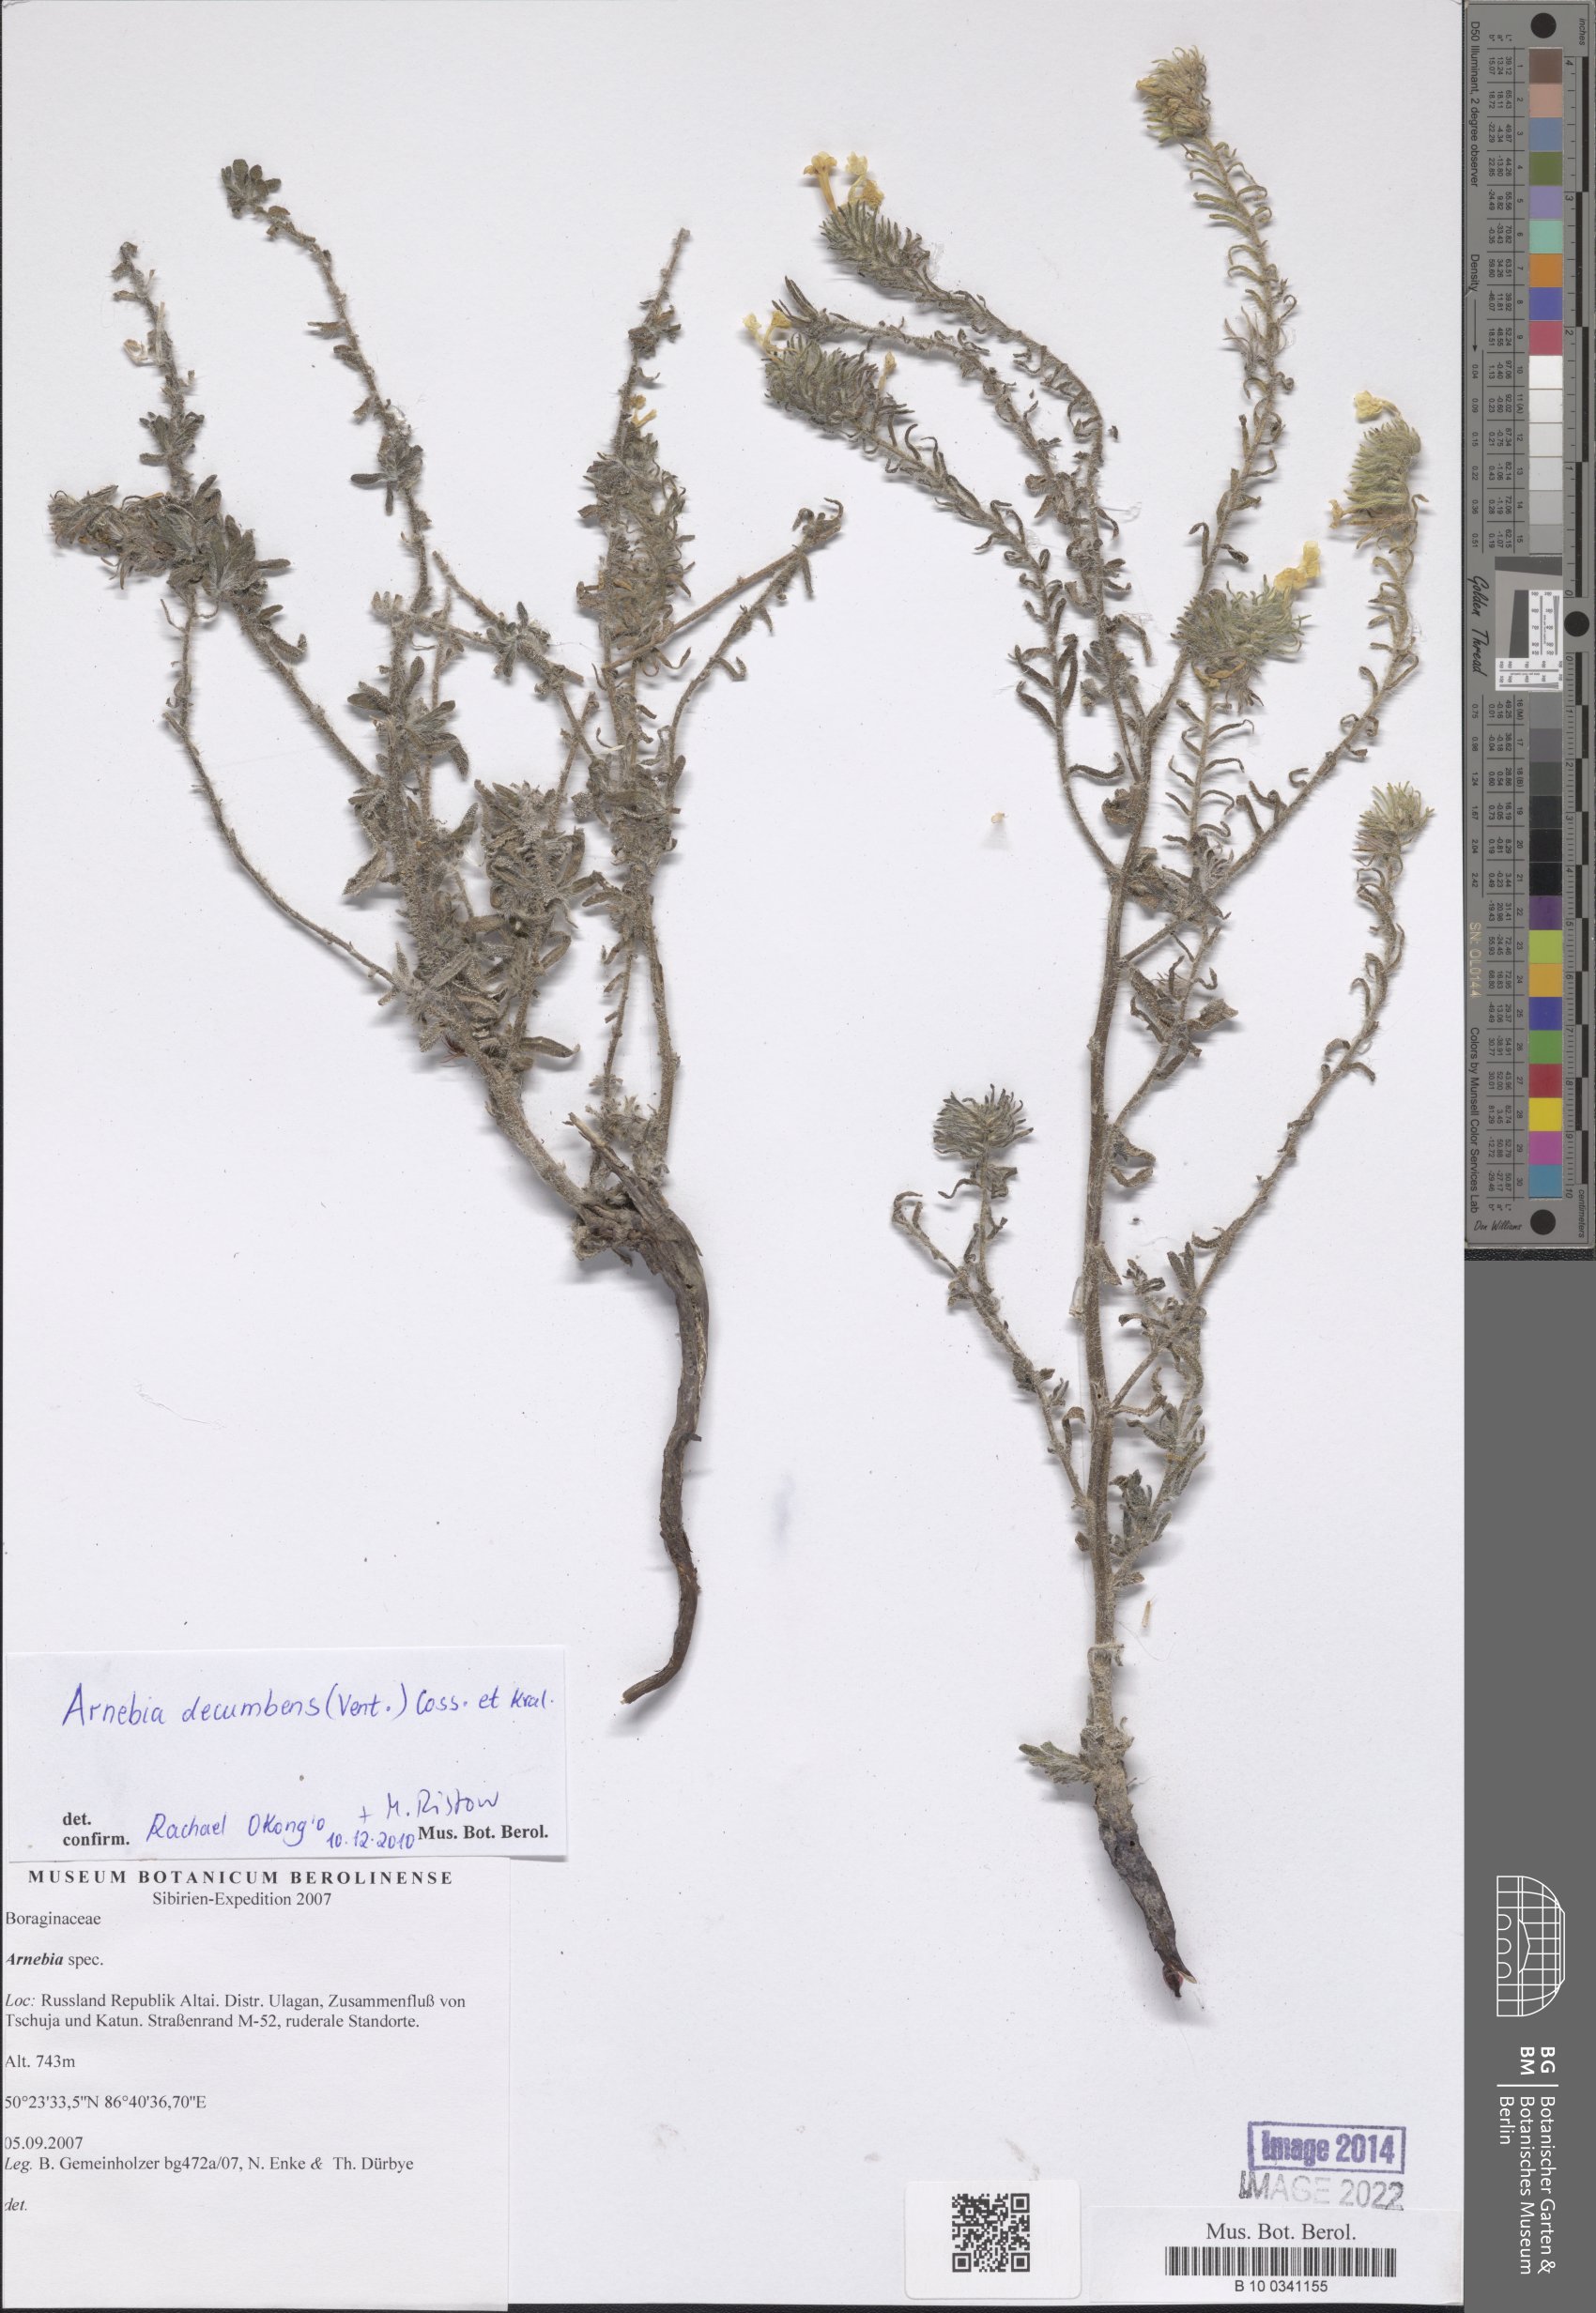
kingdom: Plantae
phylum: Tracheophyta
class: Magnoliopsida
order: Boraginales
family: Boraginaceae
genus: Arnebia
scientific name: Arnebia decumbens
